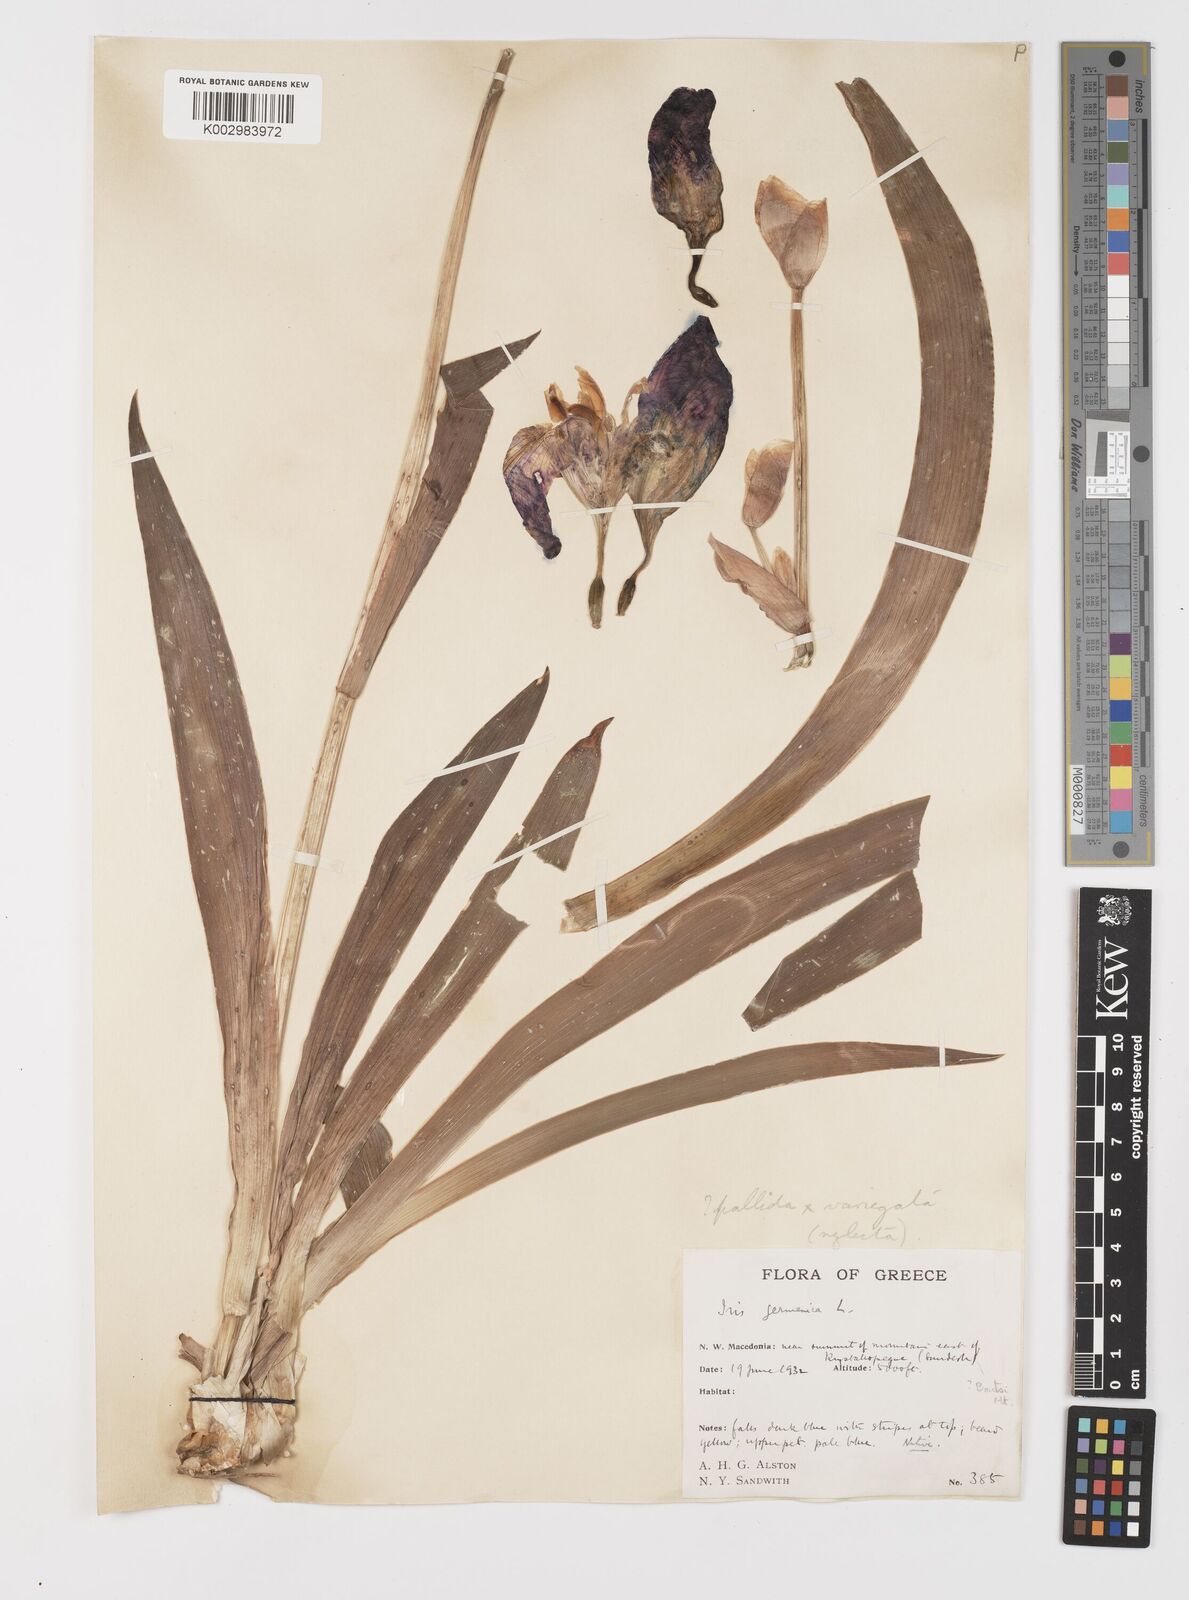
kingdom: Plantae
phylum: Tracheophyta
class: Liliopsida
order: Asparagales
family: Iridaceae
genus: Iris
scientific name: Iris germanica
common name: German iris
